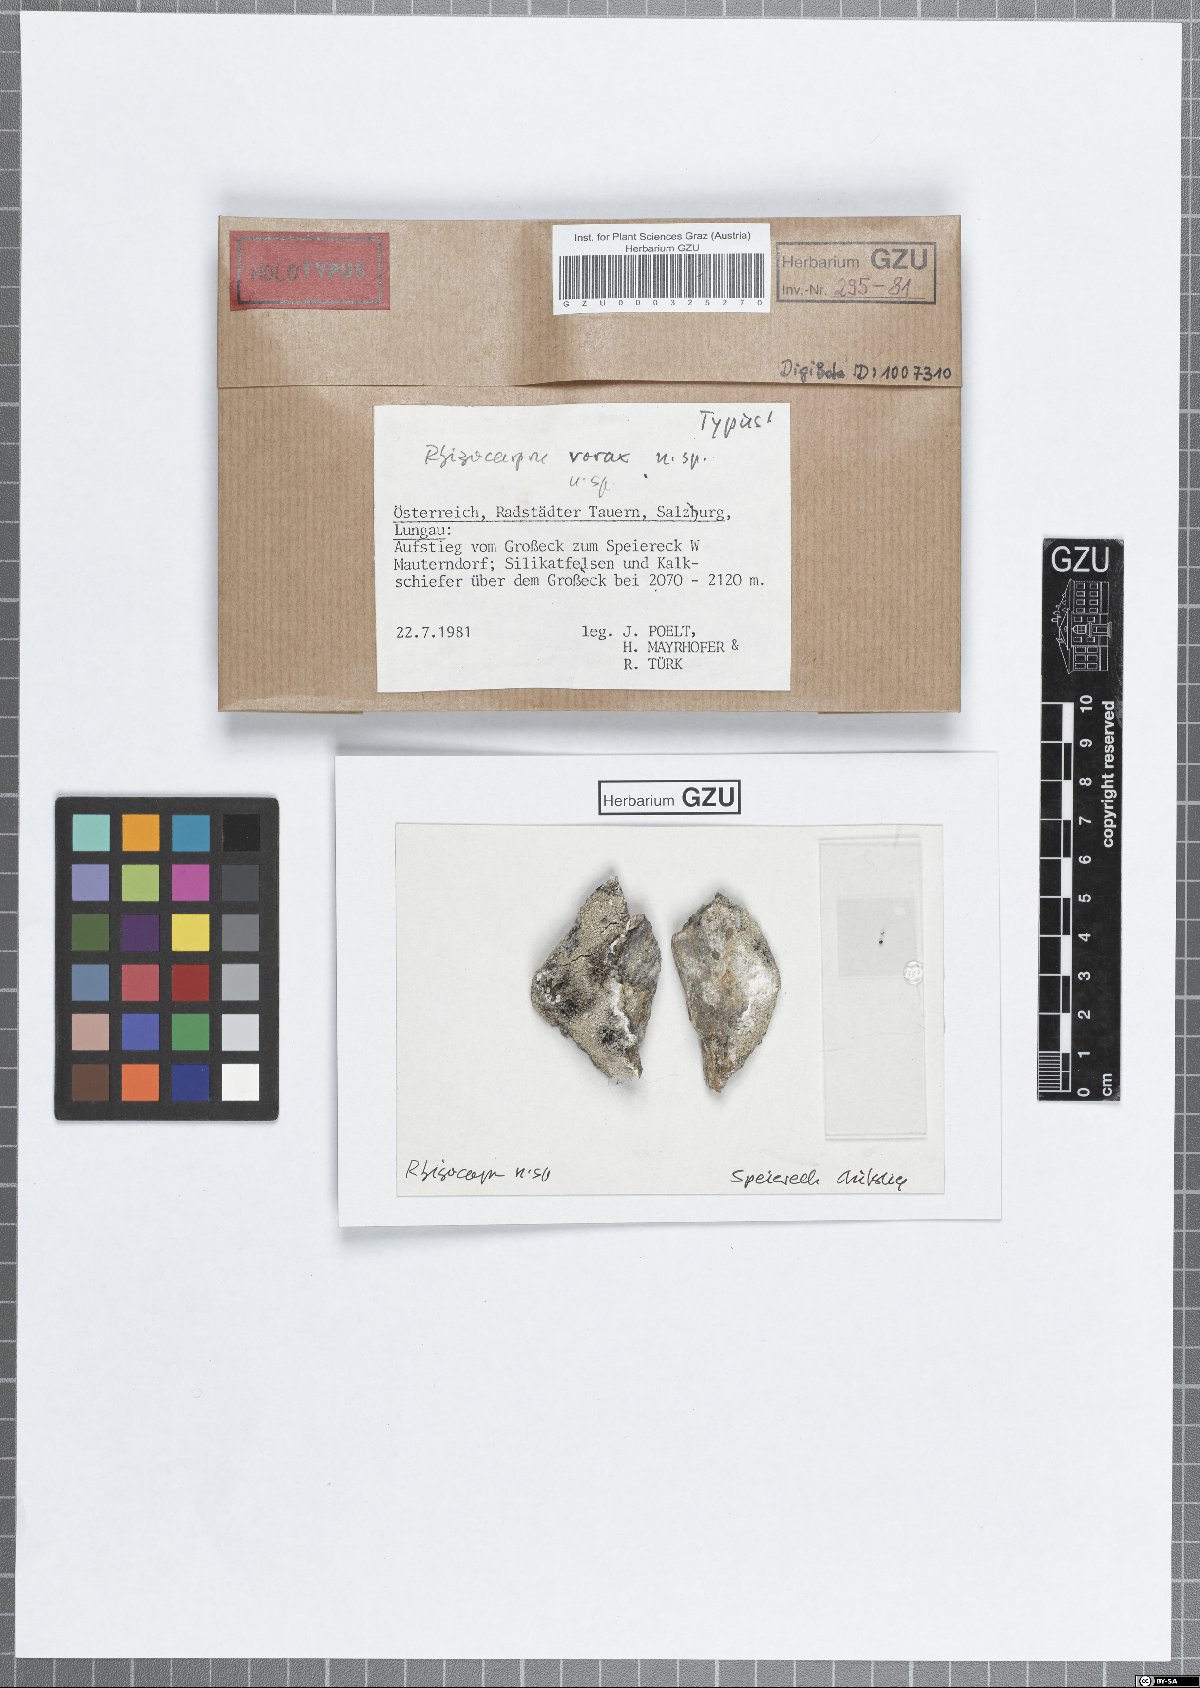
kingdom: Fungi
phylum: Ascomycota
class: Lecanoromycetes
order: Rhizocarpales
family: Rhizocarpaceae
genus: Rhizocarpon
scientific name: Rhizocarpon vorax
